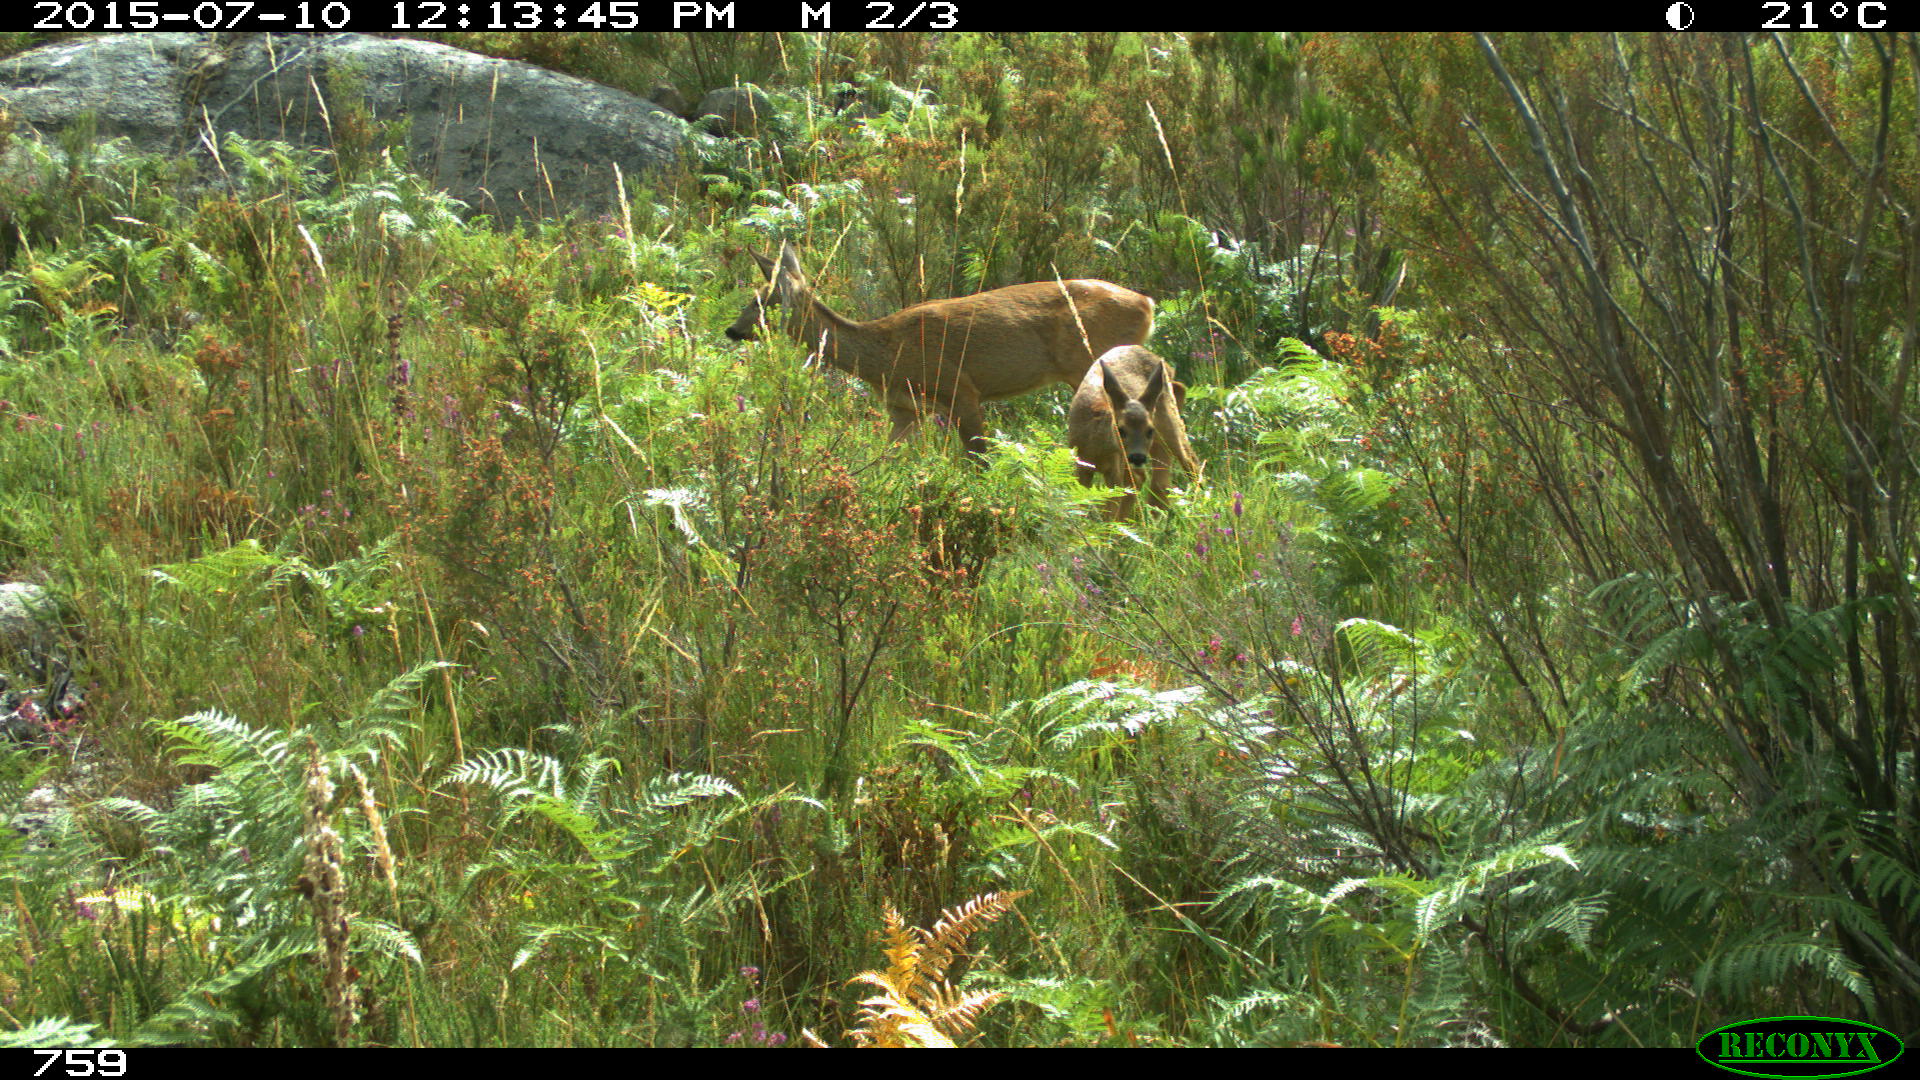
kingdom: Animalia
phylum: Chordata
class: Mammalia
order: Artiodactyla
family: Cervidae
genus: Capreolus
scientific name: Capreolus capreolus
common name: Western roe deer
